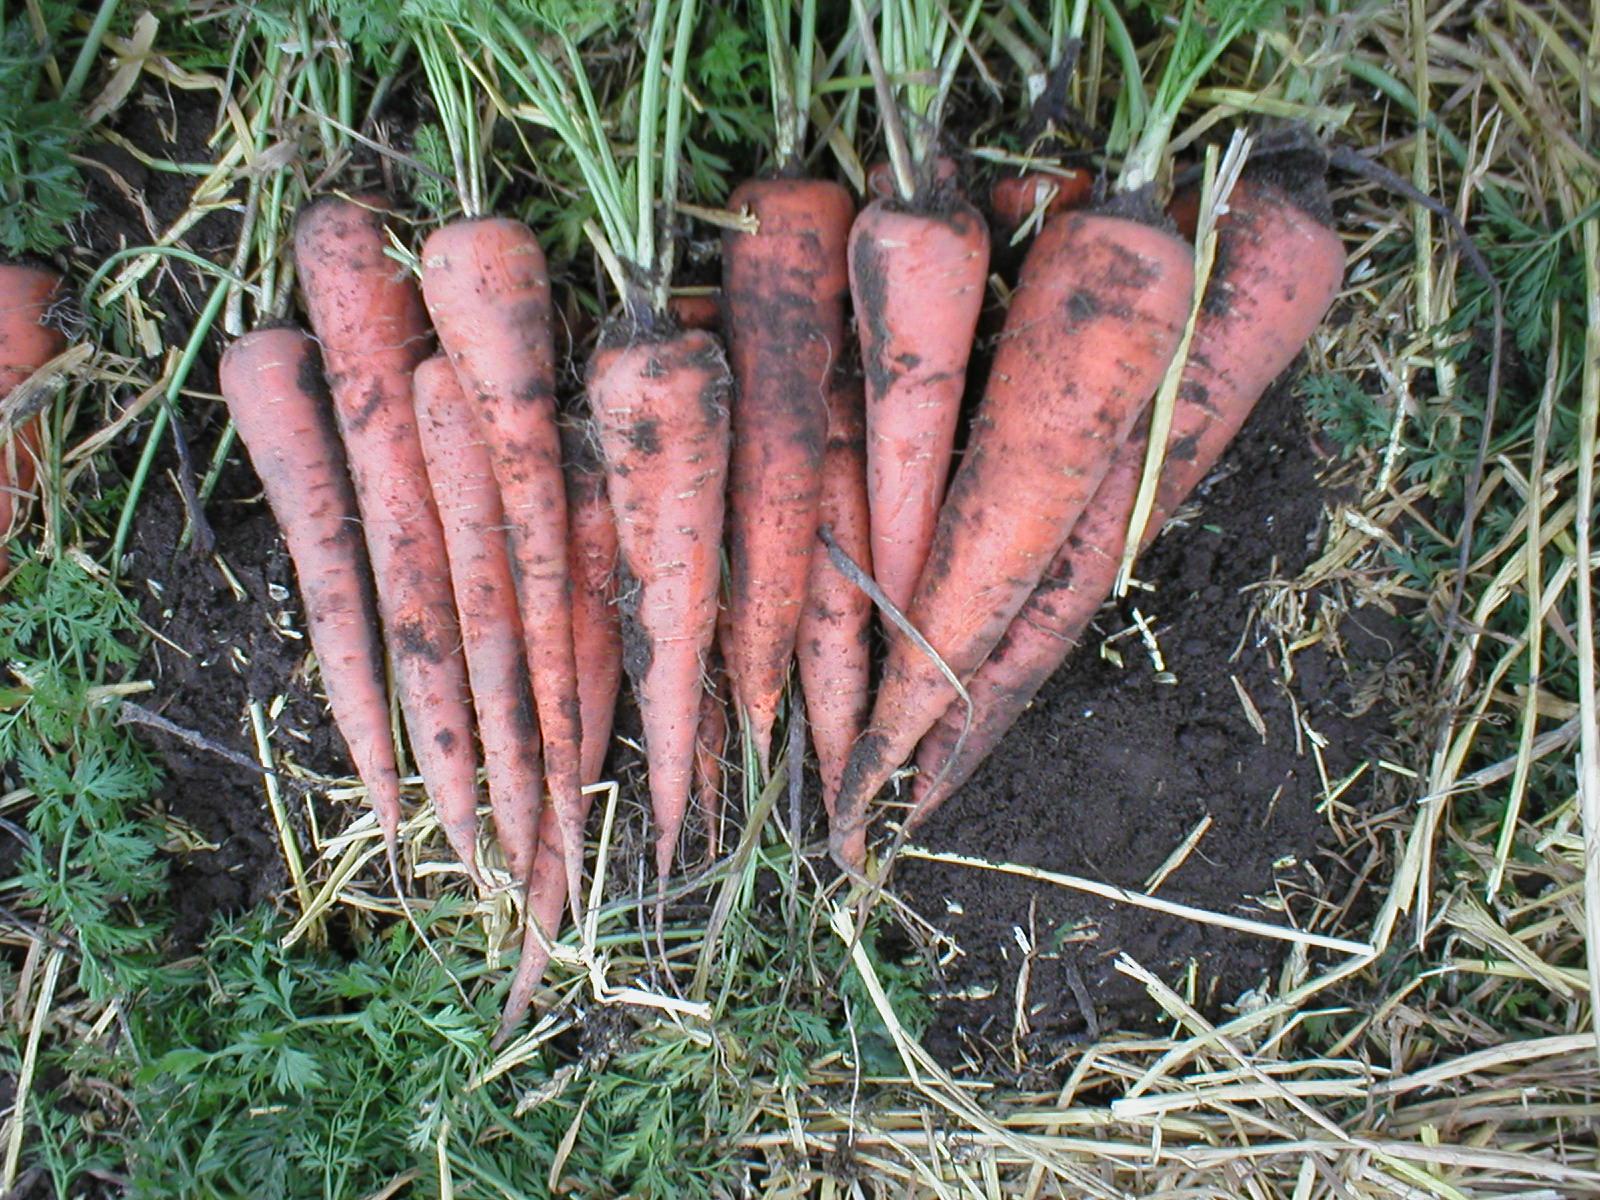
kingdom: Plantae
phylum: Tracheophyta
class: Magnoliopsida
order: Apiales
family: Apiaceae
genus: Daucus
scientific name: Daucus carota
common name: Wild carrot
